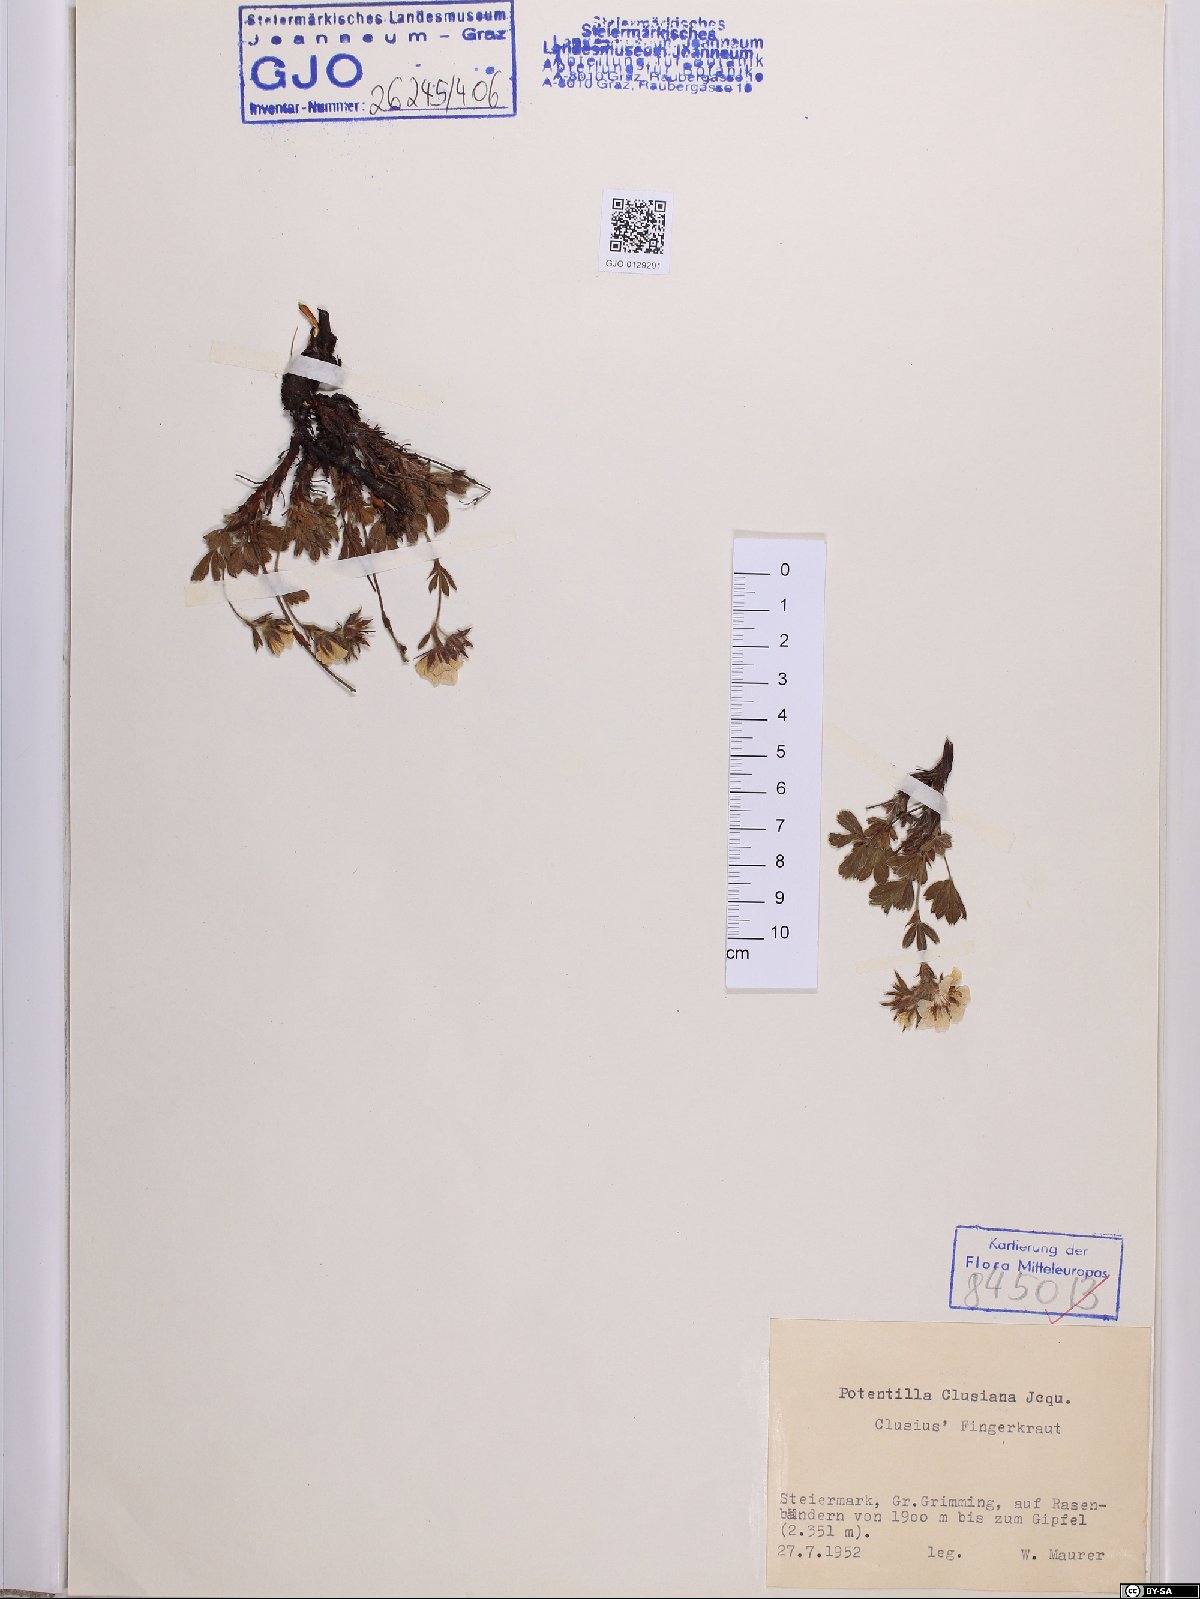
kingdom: Plantae
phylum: Tracheophyta
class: Magnoliopsida
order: Rosales
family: Rosaceae
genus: Potentilla
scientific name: Potentilla clusiana
